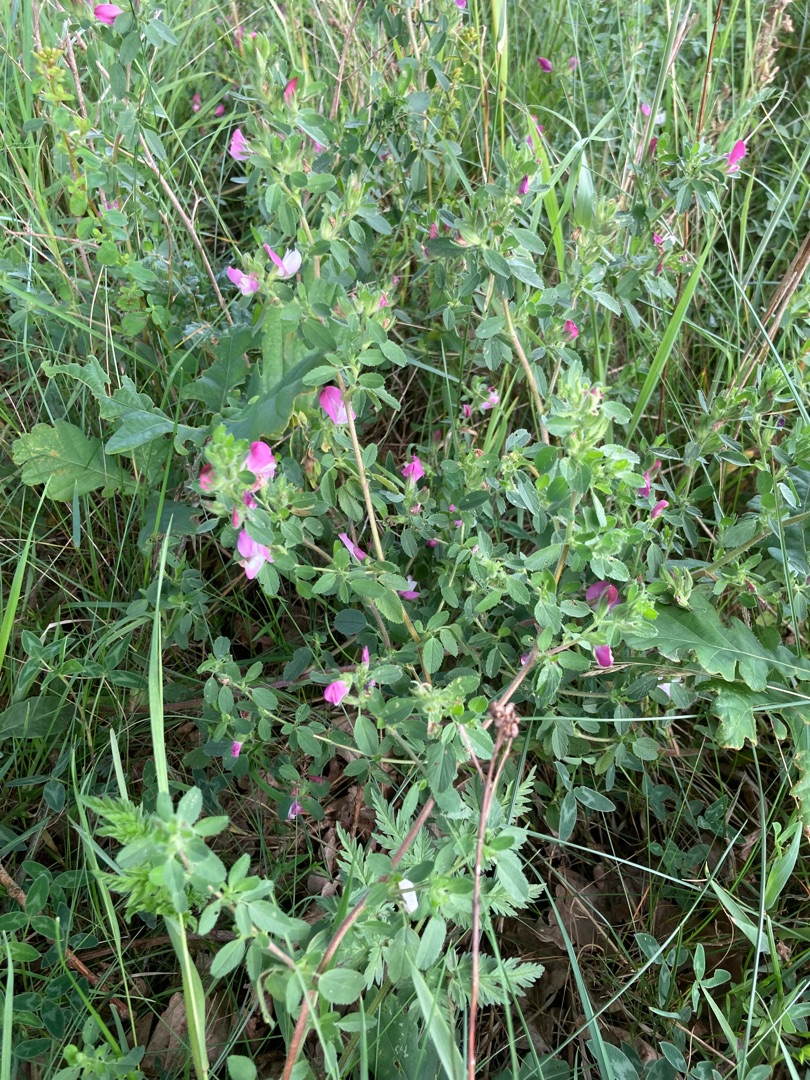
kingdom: Plantae
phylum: Tracheophyta
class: Magnoliopsida
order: Fabales
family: Fabaceae
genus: Ononis
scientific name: Ononis spinosa
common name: Mark-krageklo
